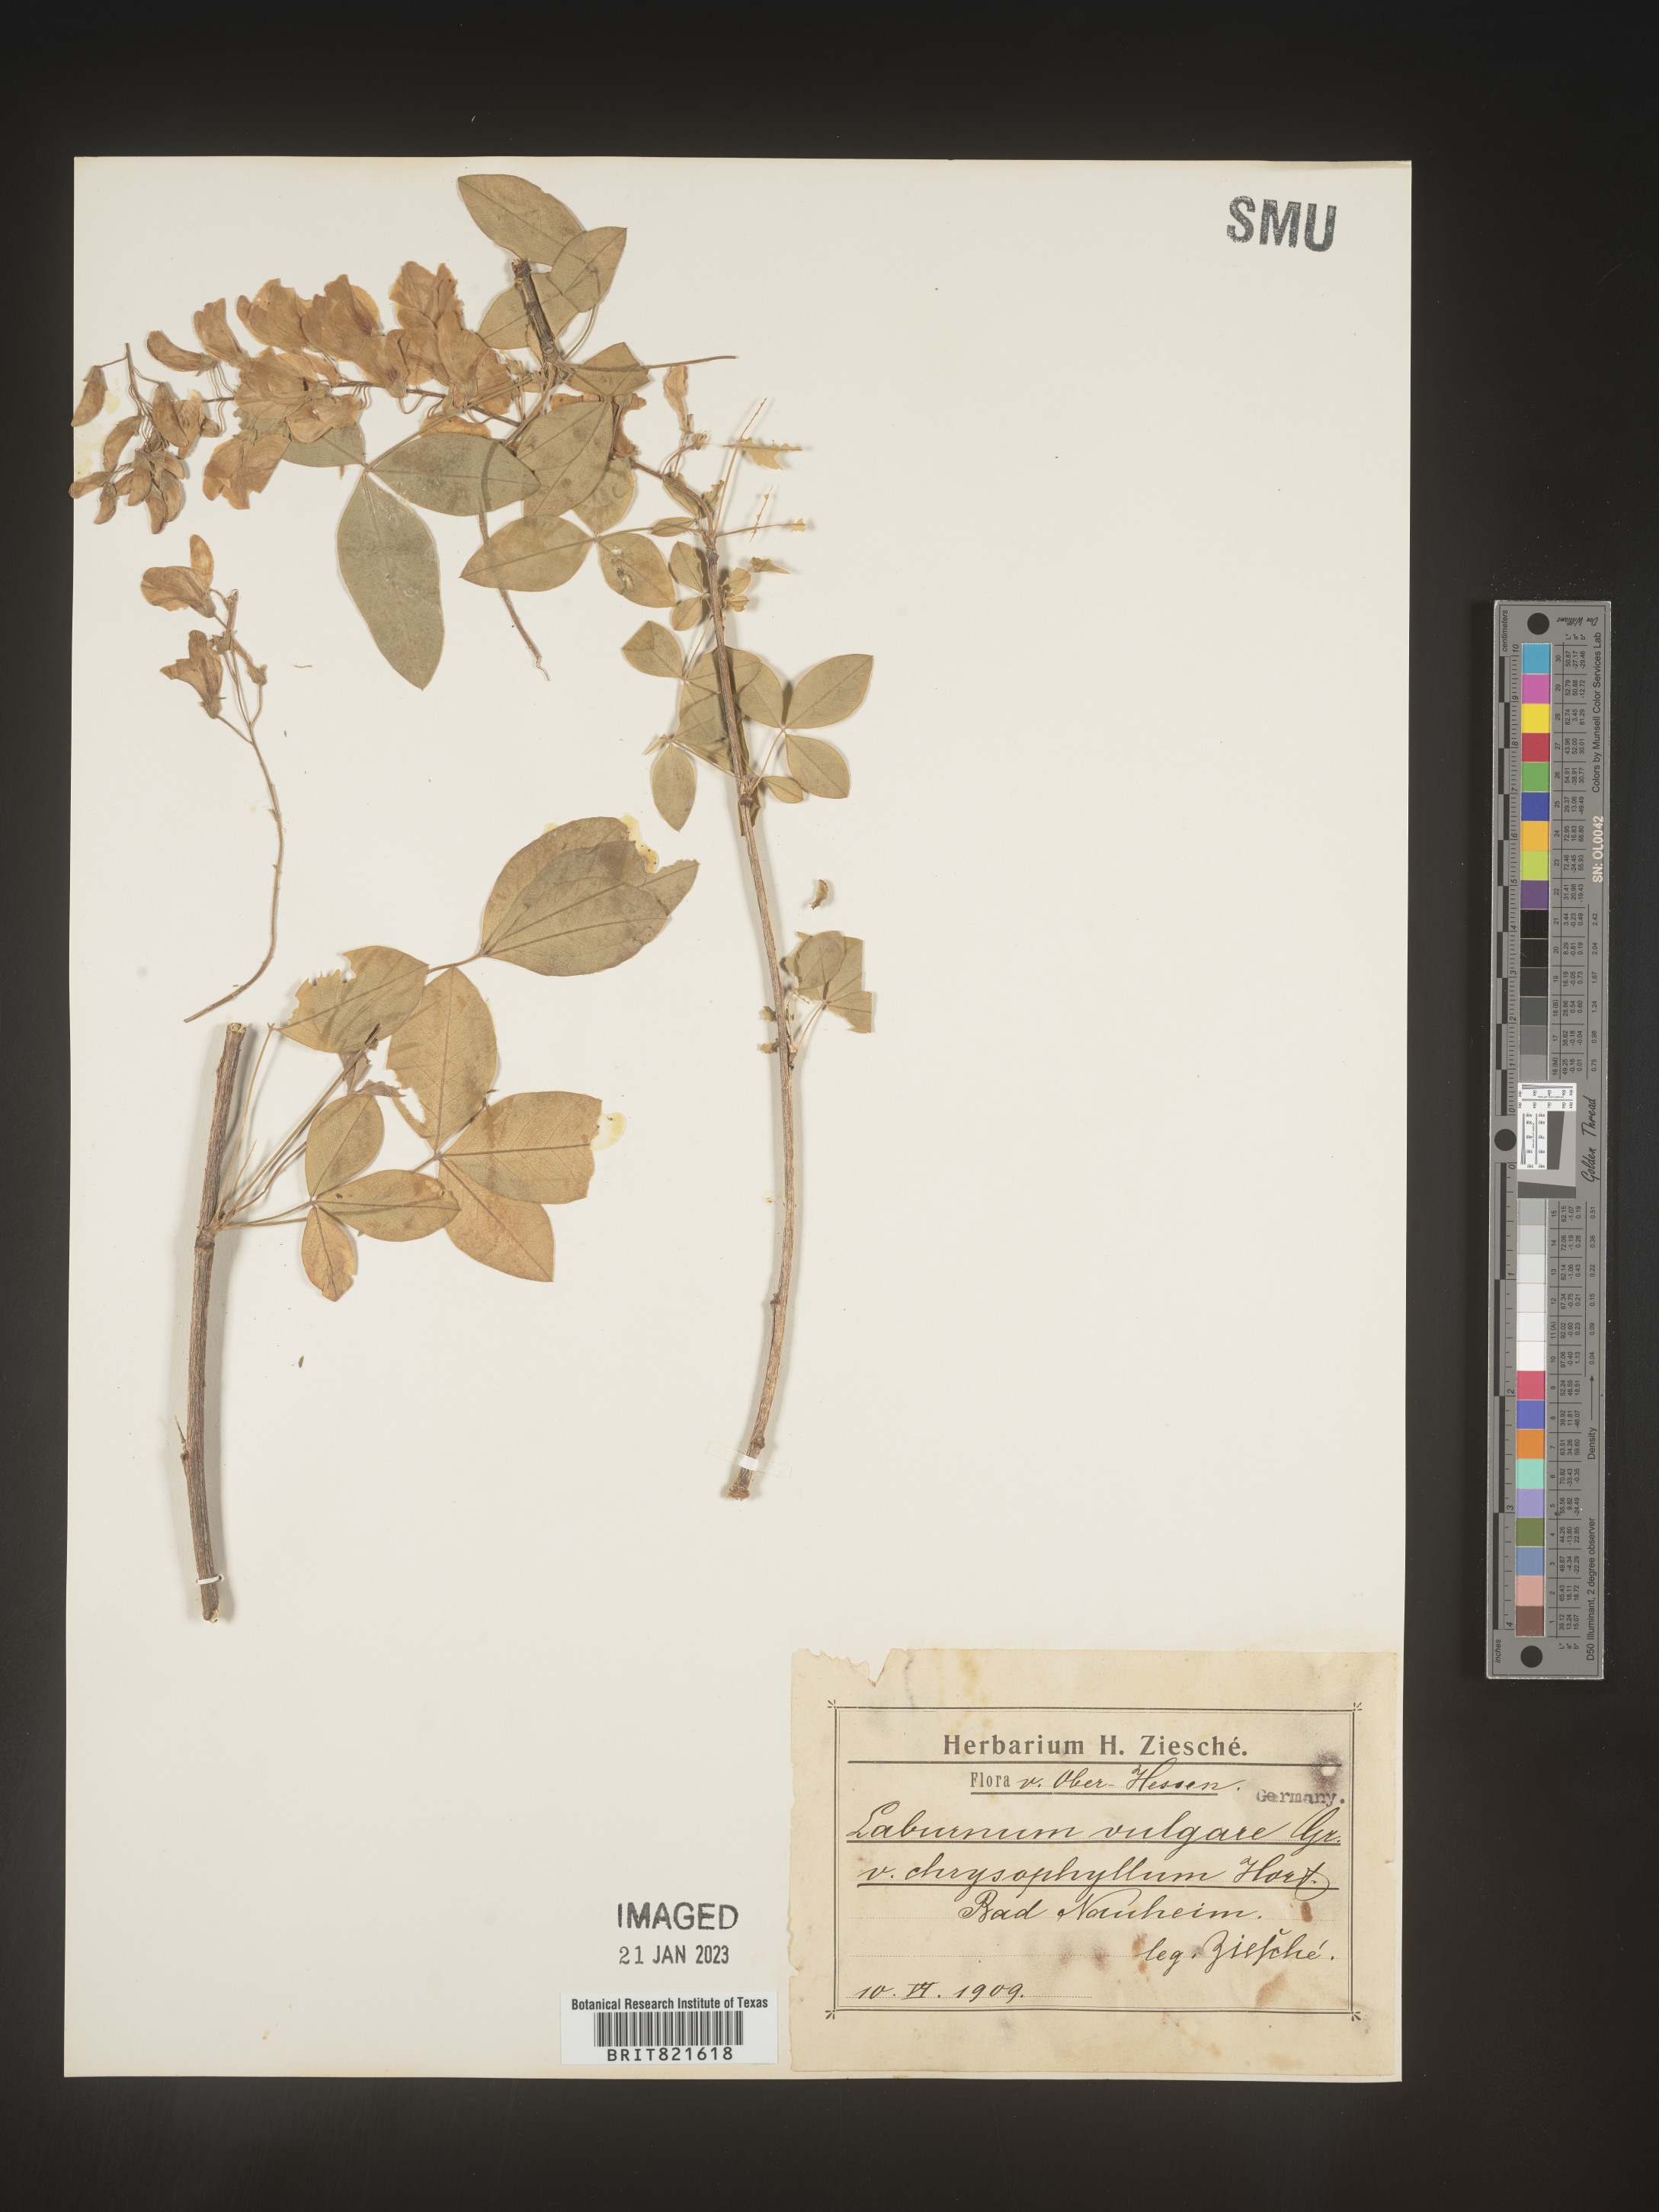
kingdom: Plantae
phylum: Tracheophyta
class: Magnoliopsida
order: Fabales
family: Fabaceae
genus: Laburnum
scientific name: Laburnum
